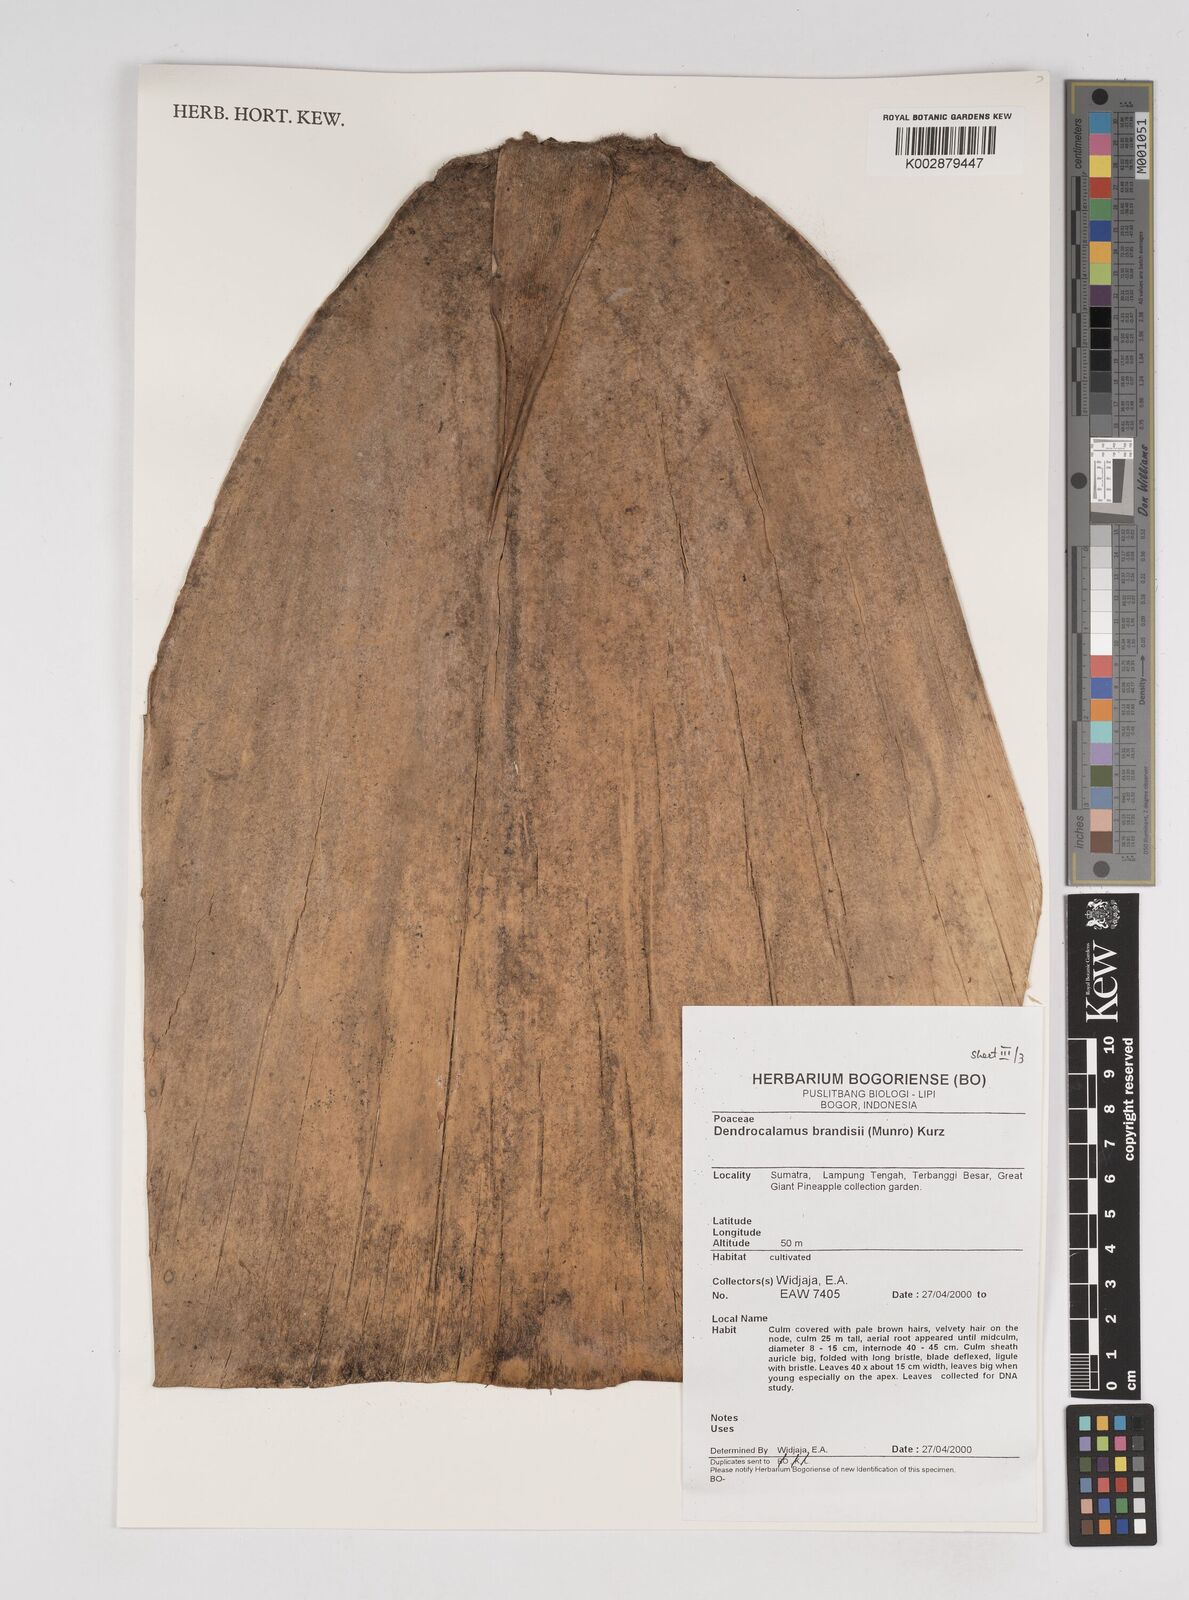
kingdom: Plantae
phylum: Tracheophyta
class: Liliopsida
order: Poales
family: Poaceae
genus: Dendrocalamus
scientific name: Dendrocalamus brandisii
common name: Velvetleaf bamboo
